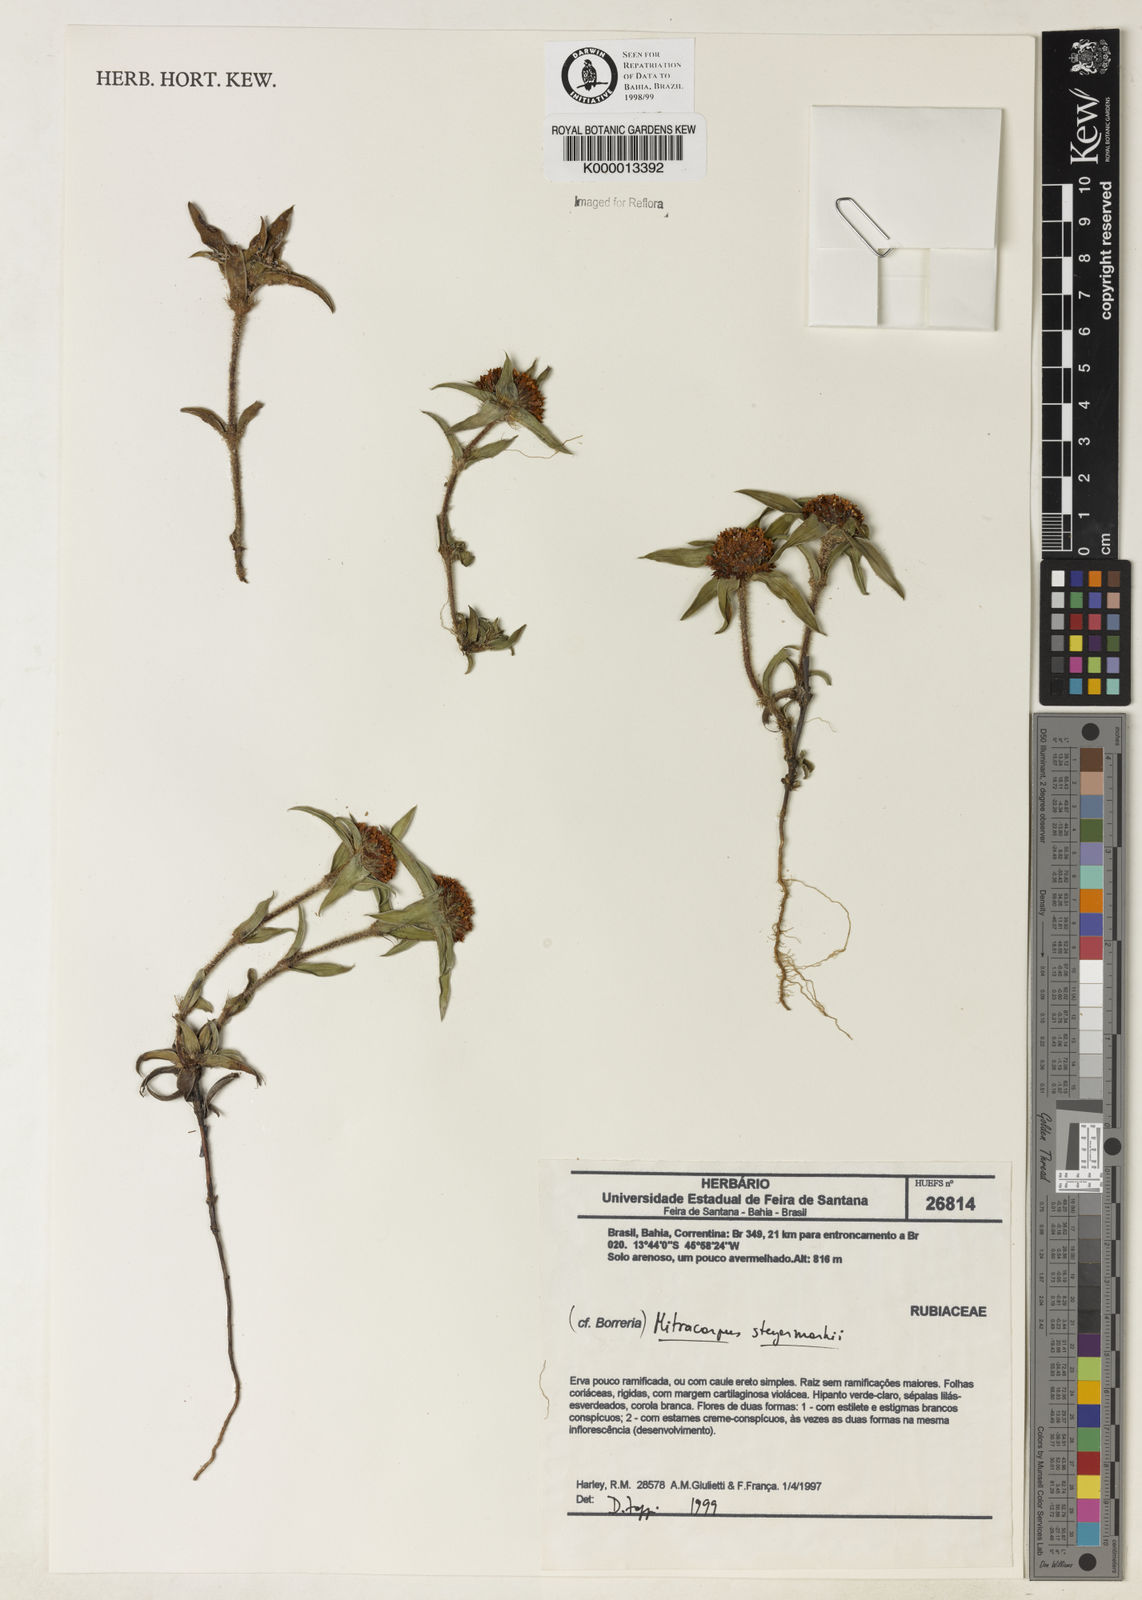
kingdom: Plantae
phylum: Tracheophyta
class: Magnoliopsida
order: Gentianales
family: Rubiaceae
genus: Mitracarpus
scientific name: Mitracarpus steyermarkii
